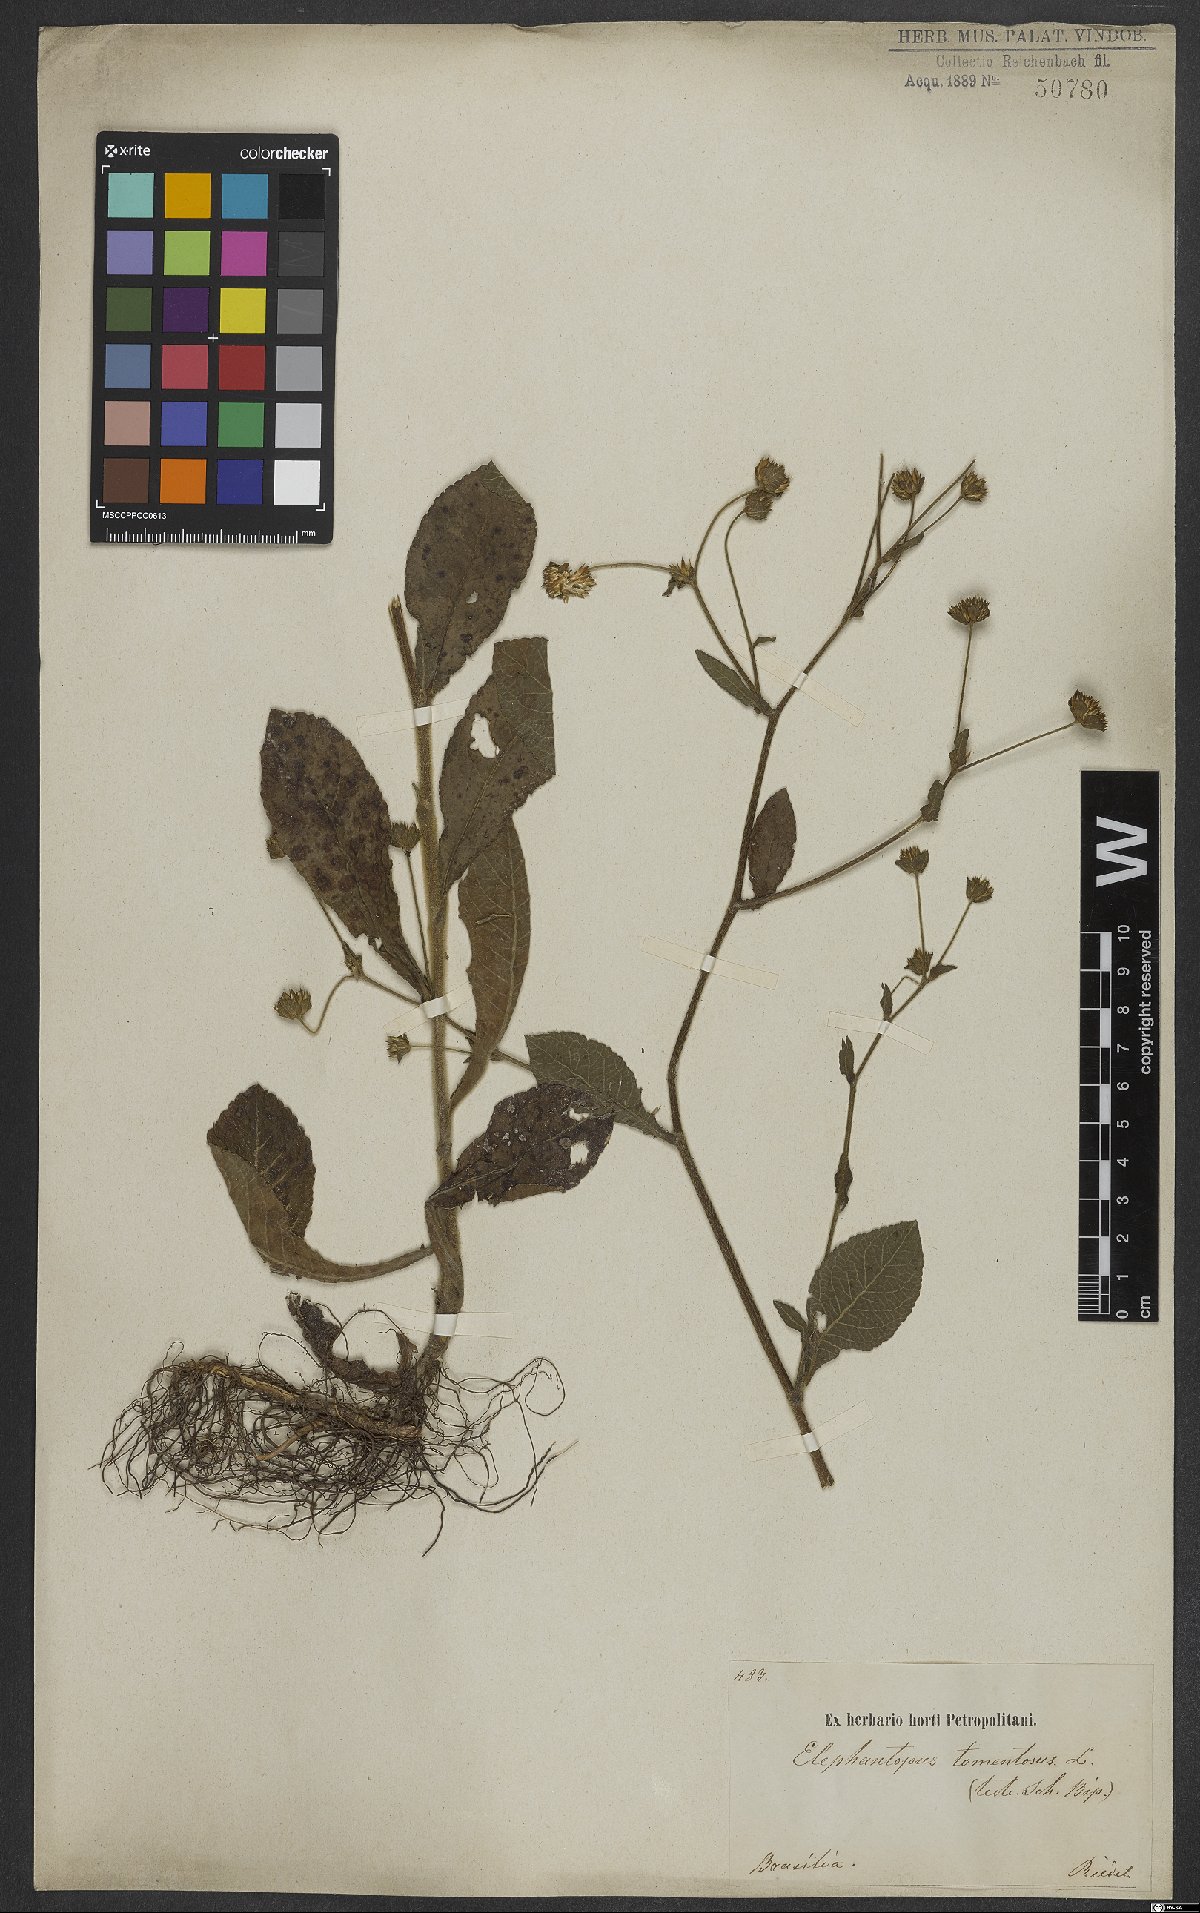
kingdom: Plantae
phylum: Tracheophyta
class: Magnoliopsida
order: Asterales
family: Asteraceae
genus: Elephantopus
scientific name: Elephantopus tomentosus
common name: Tobacco-weed
